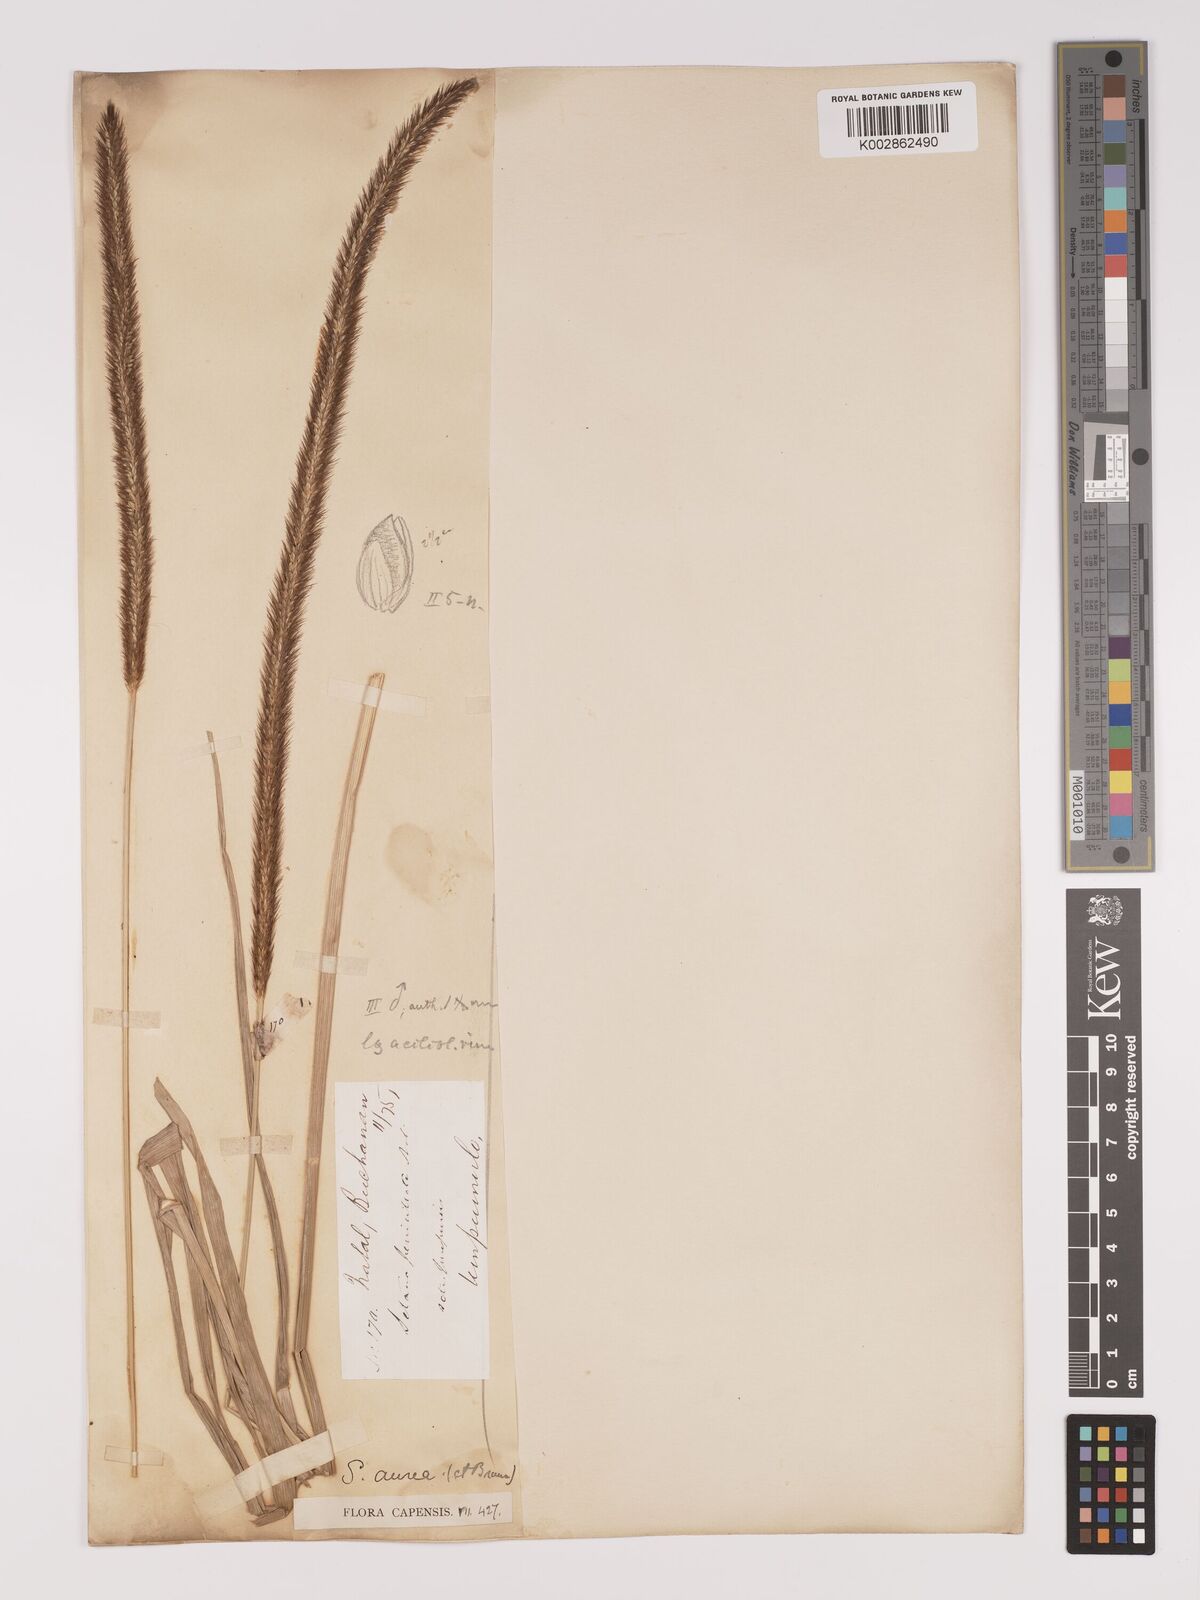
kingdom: Plantae
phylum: Tracheophyta
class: Liliopsida
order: Poales
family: Poaceae
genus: Setaria
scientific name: Setaria sphacelata
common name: African bristlegrass
